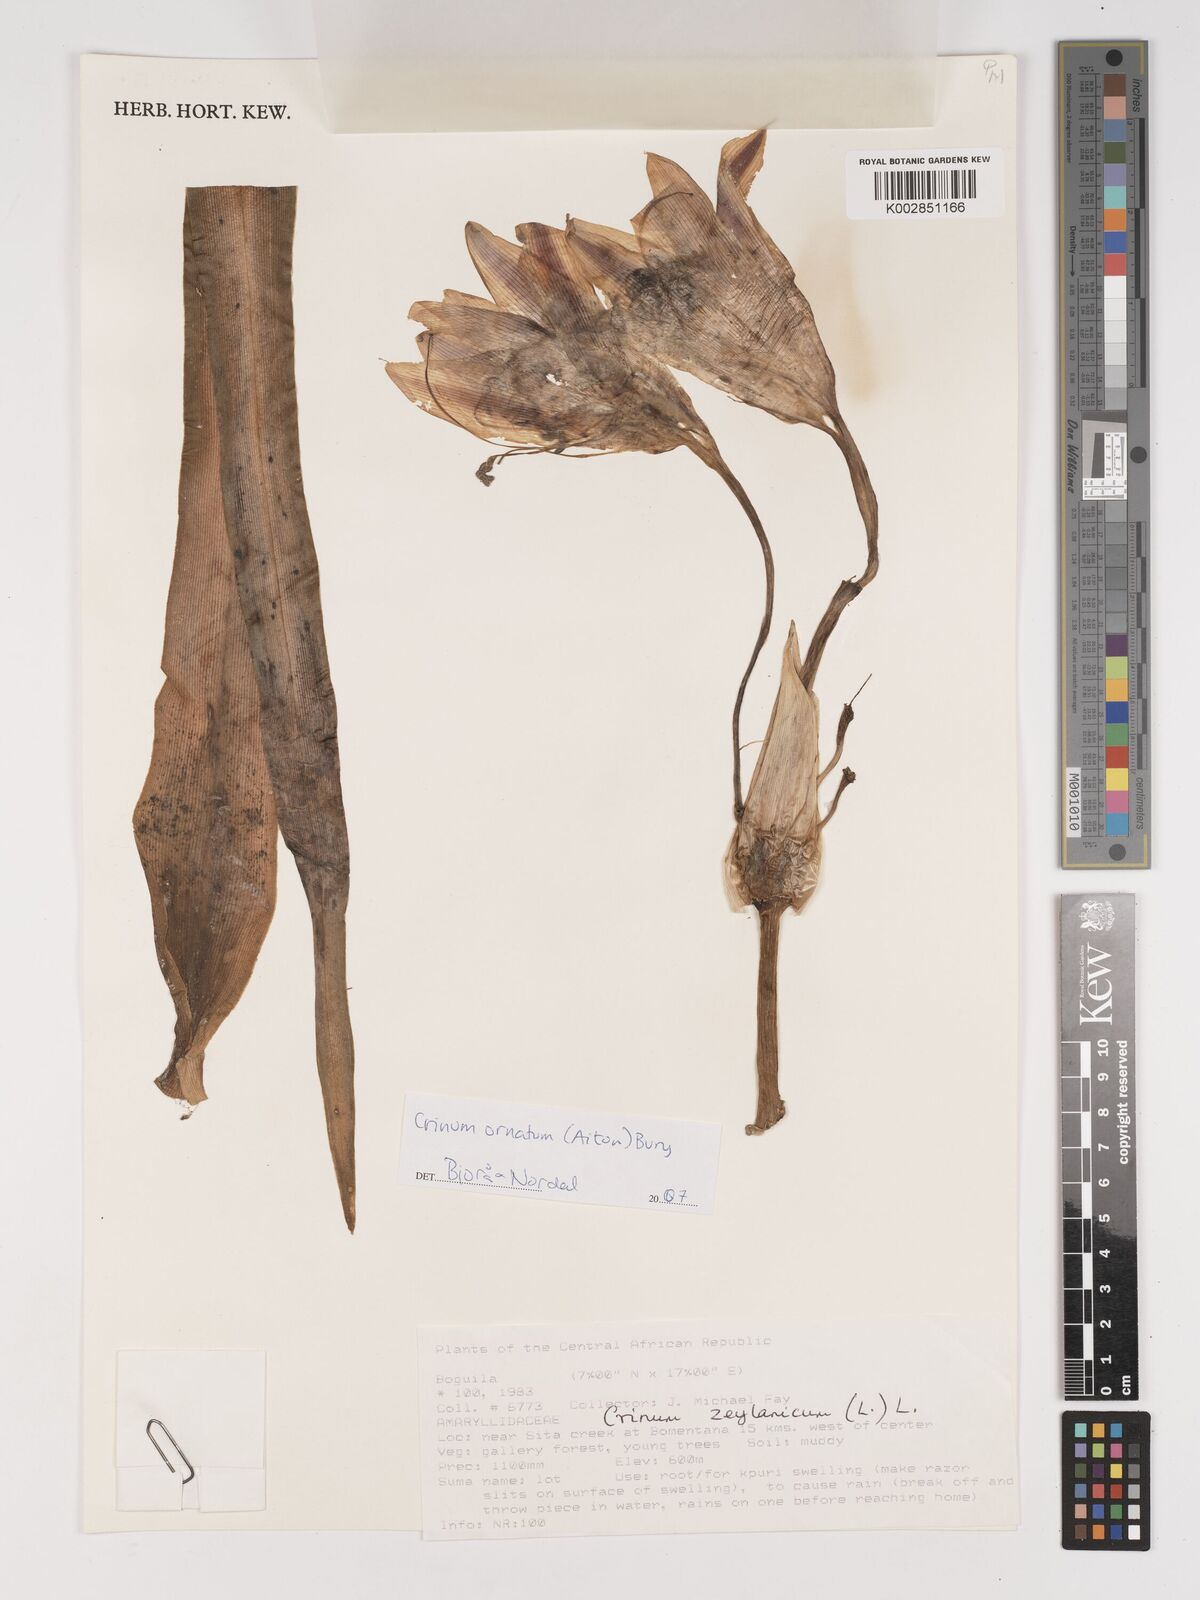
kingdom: Plantae
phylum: Tracheophyta
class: Liliopsida
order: Asparagales
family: Amaryllidaceae
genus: Crinum
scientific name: Crinum ornatum
